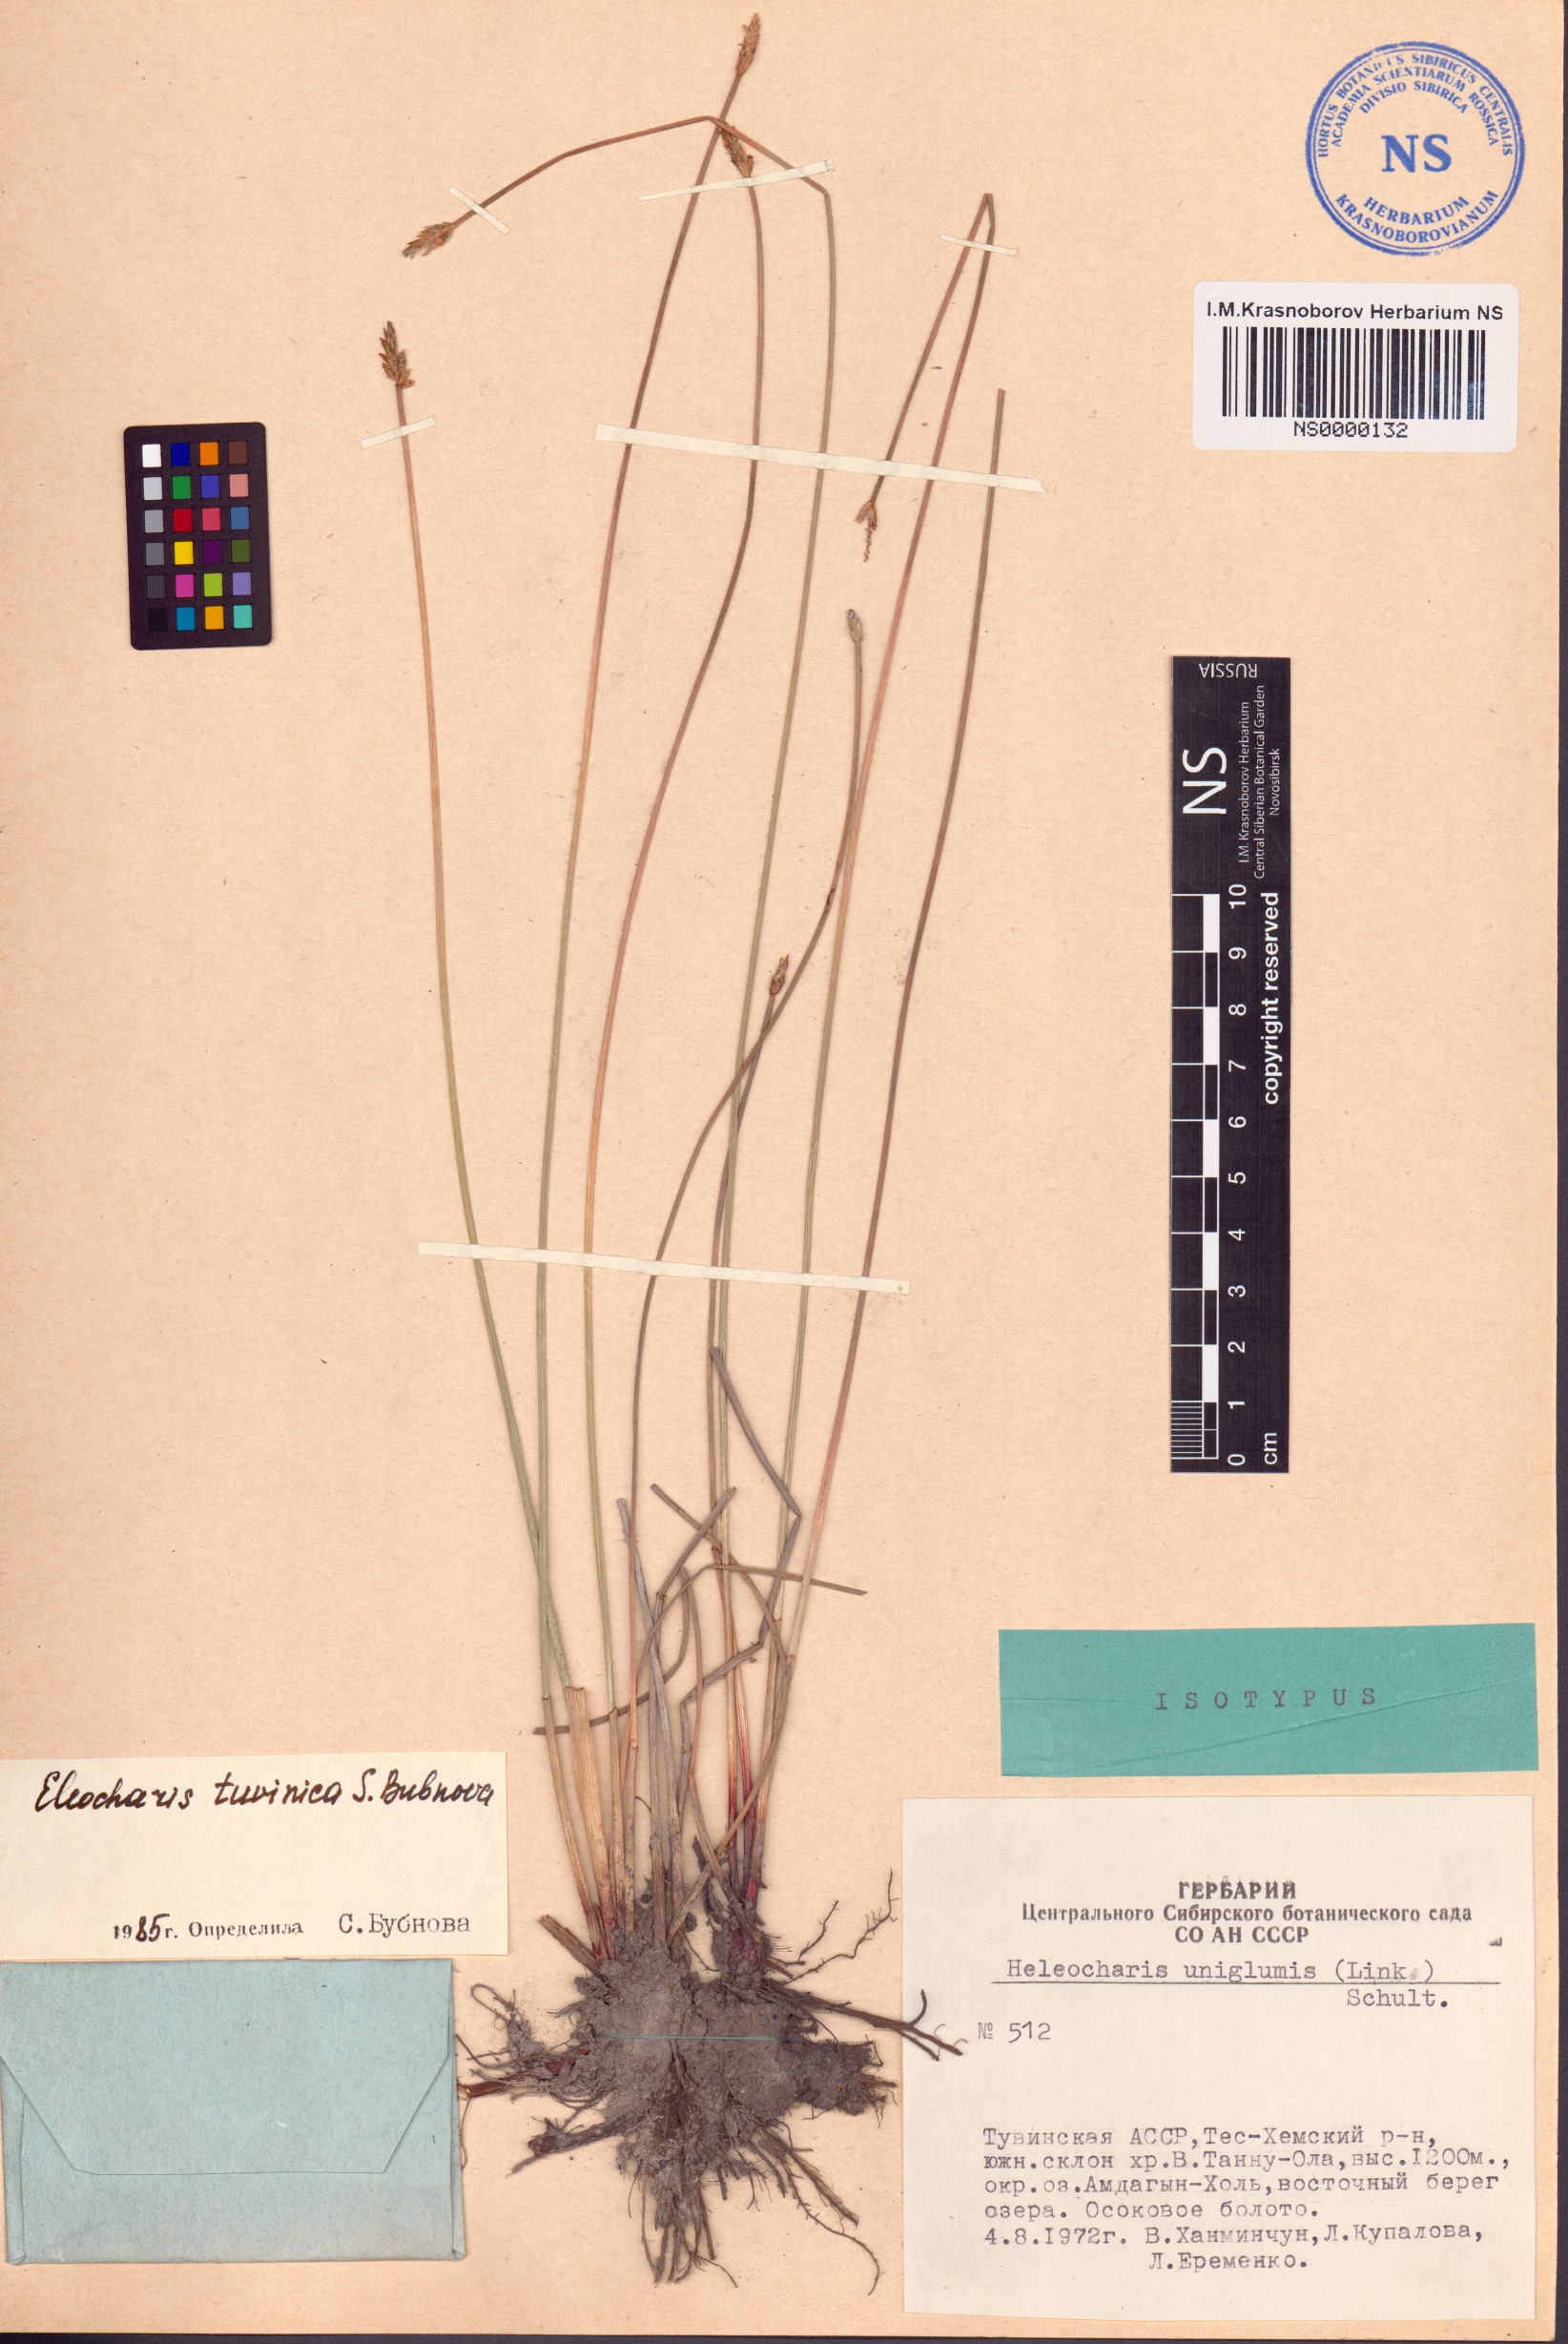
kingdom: Plantae
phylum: Tracheophyta
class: Liliopsida
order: Poales
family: Cyperaceae
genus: Eleocharis
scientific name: Eleocharis tuvinica
